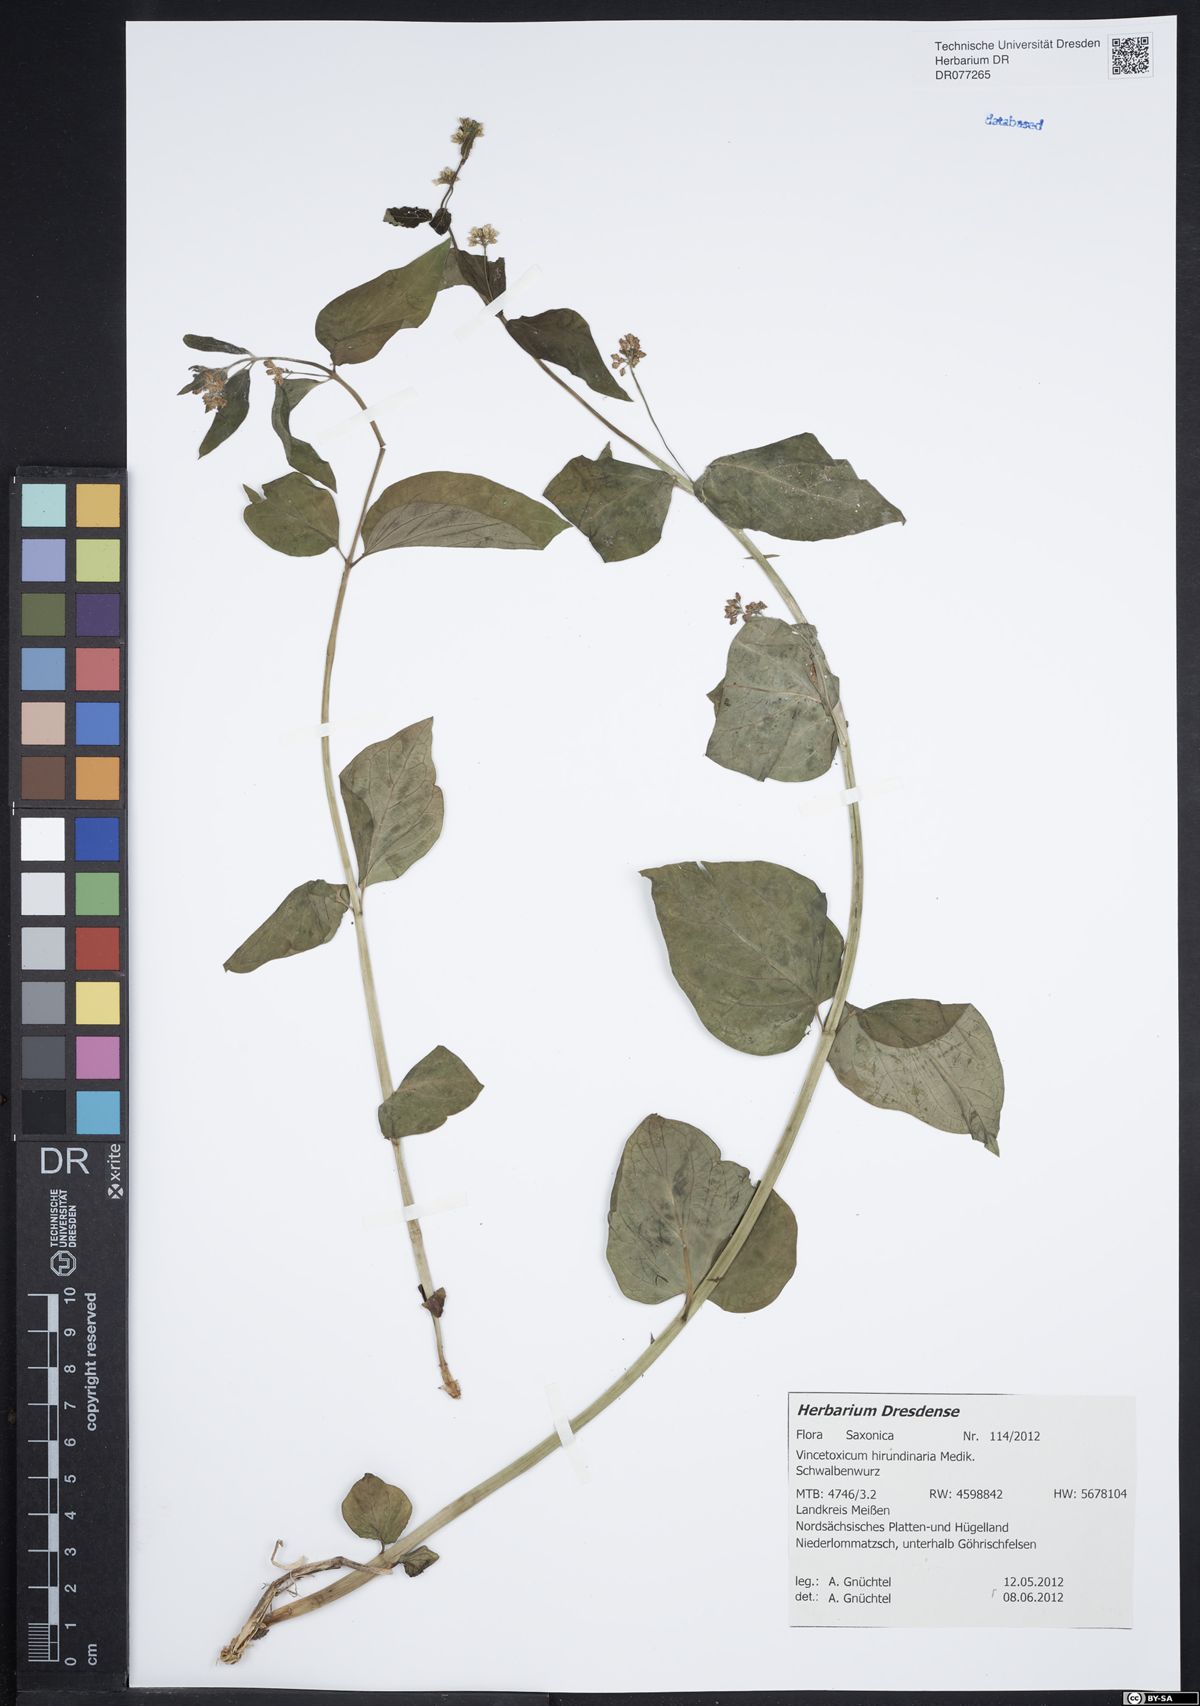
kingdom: Plantae
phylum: Tracheophyta
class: Magnoliopsida
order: Gentianales
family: Apocynaceae
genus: Vincetoxicum
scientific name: Vincetoxicum hirundinaria
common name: White swallowwort
